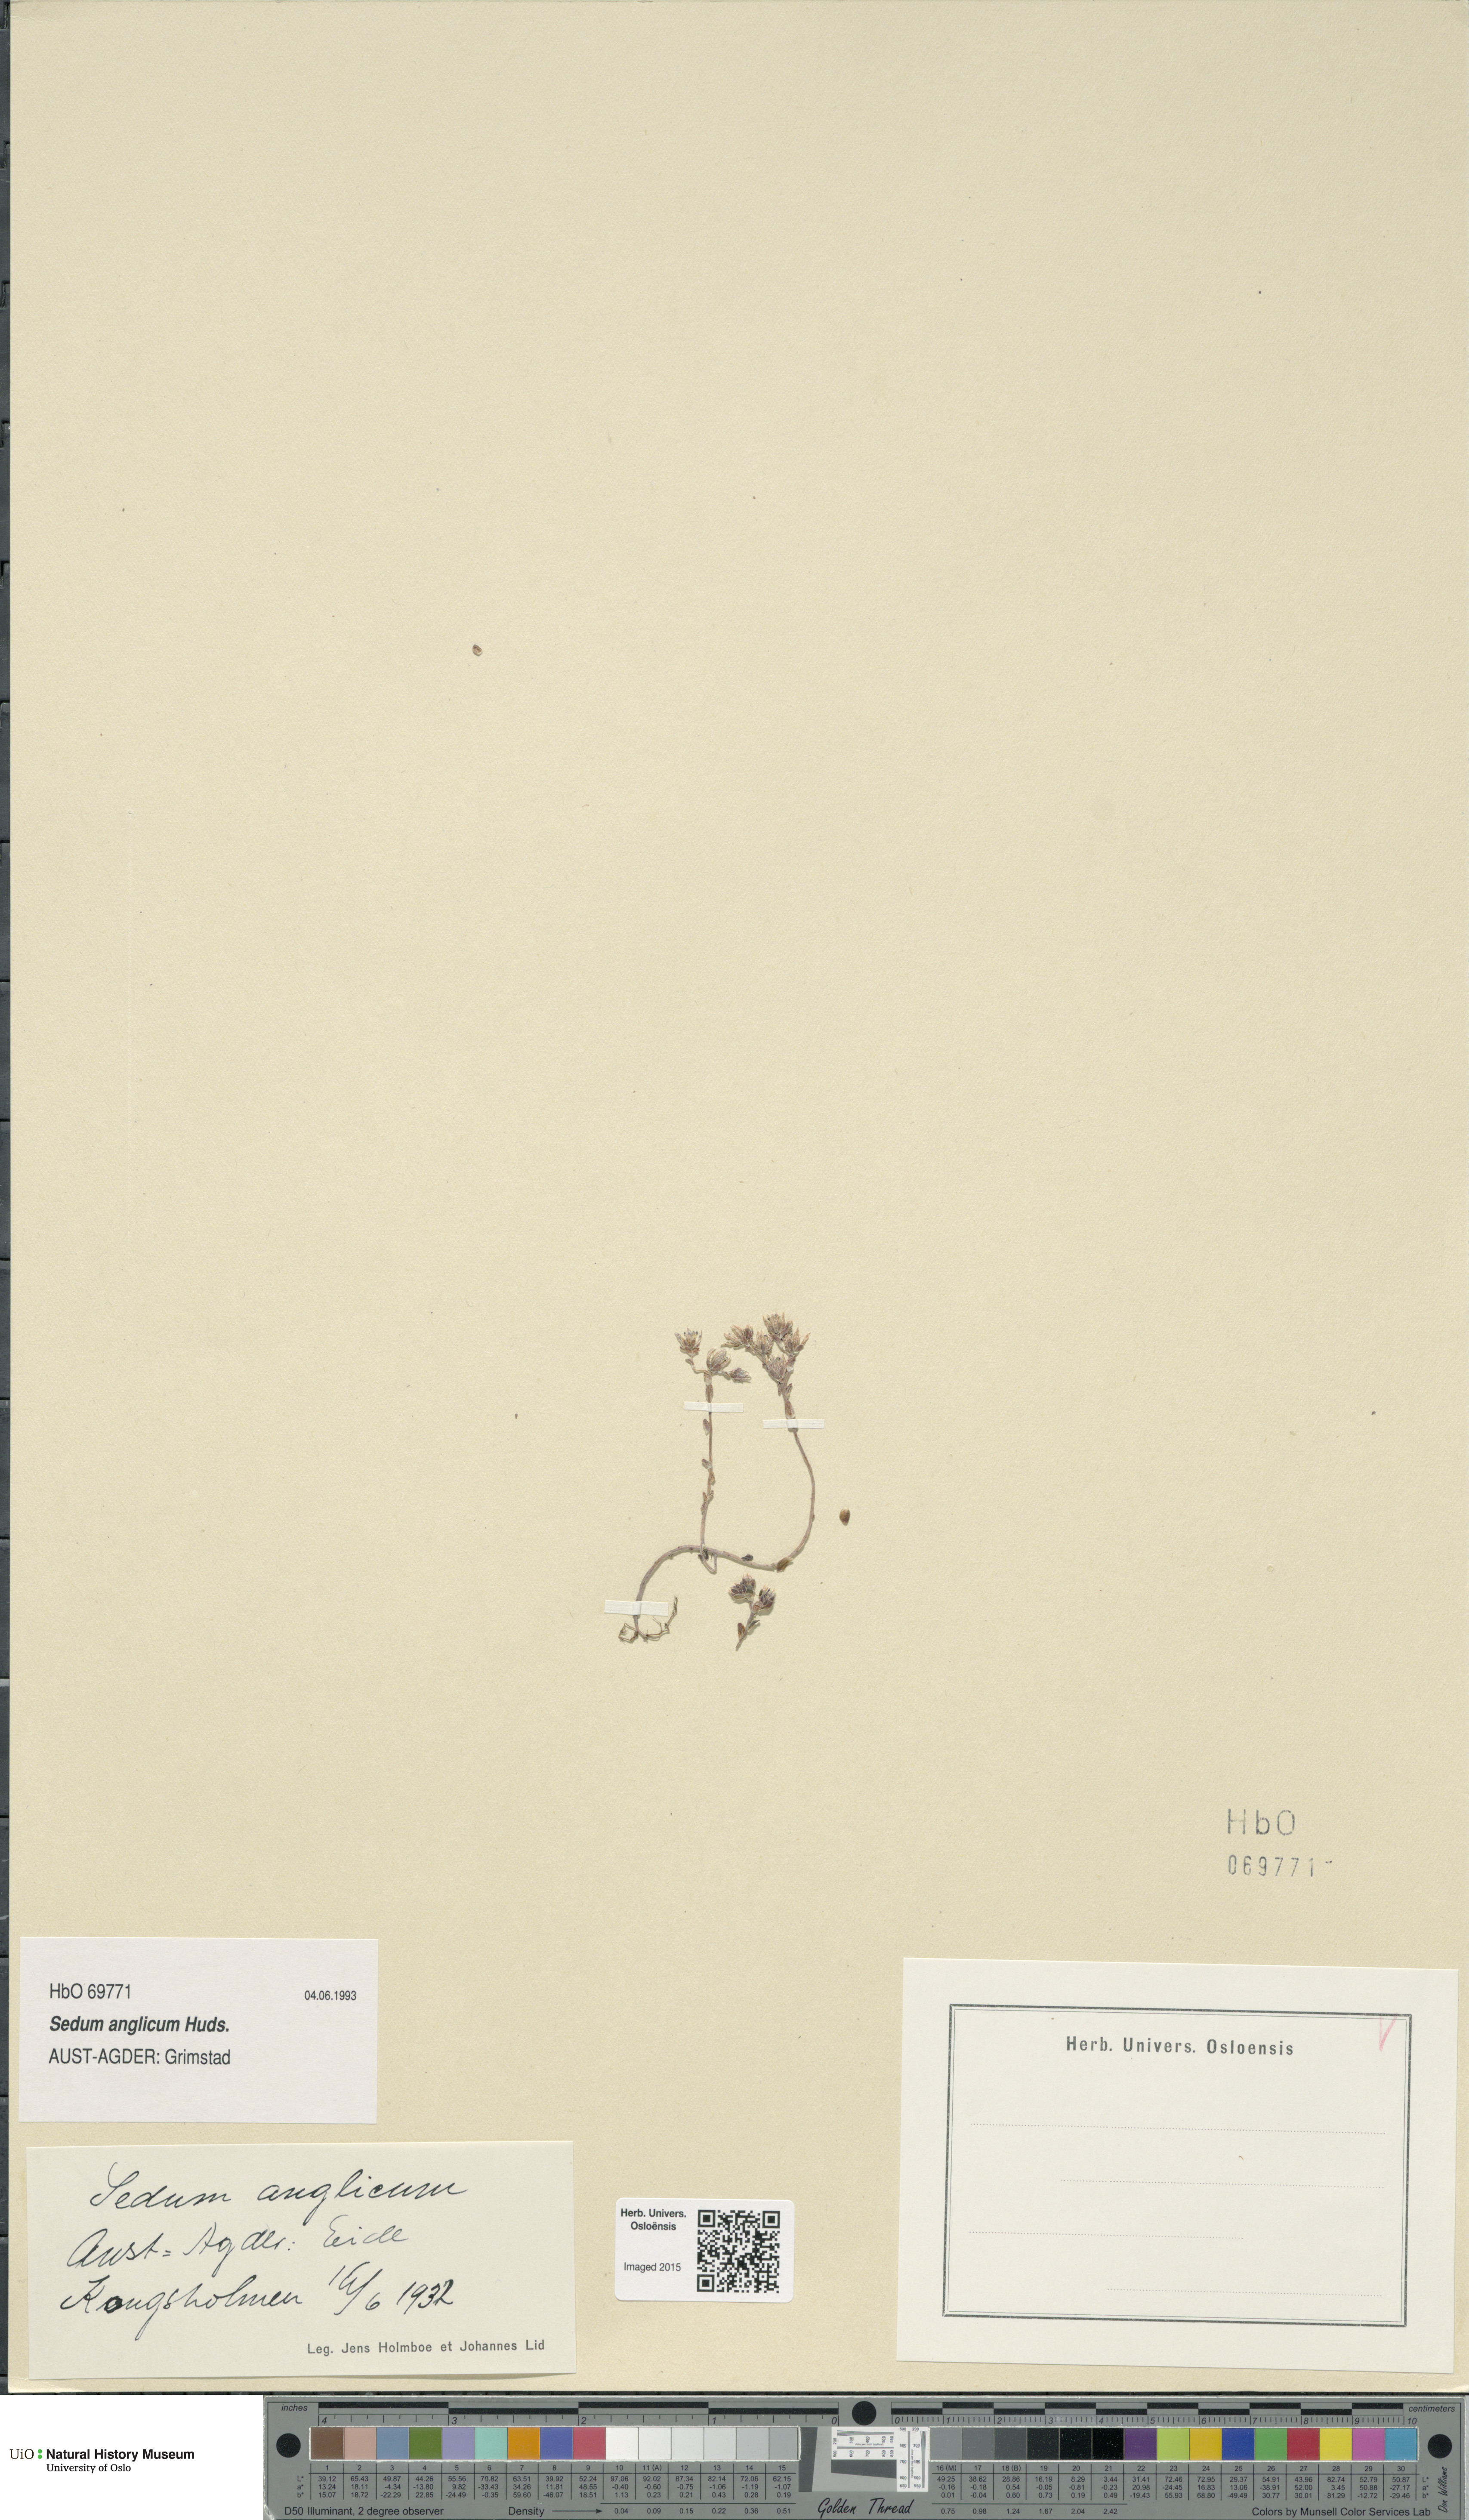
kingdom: Plantae
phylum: Tracheophyta
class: Magnoliopsida
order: Saxifragales
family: Crassulaceae
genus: Sedum
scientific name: Sedum anglicum
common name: English stonecrop
